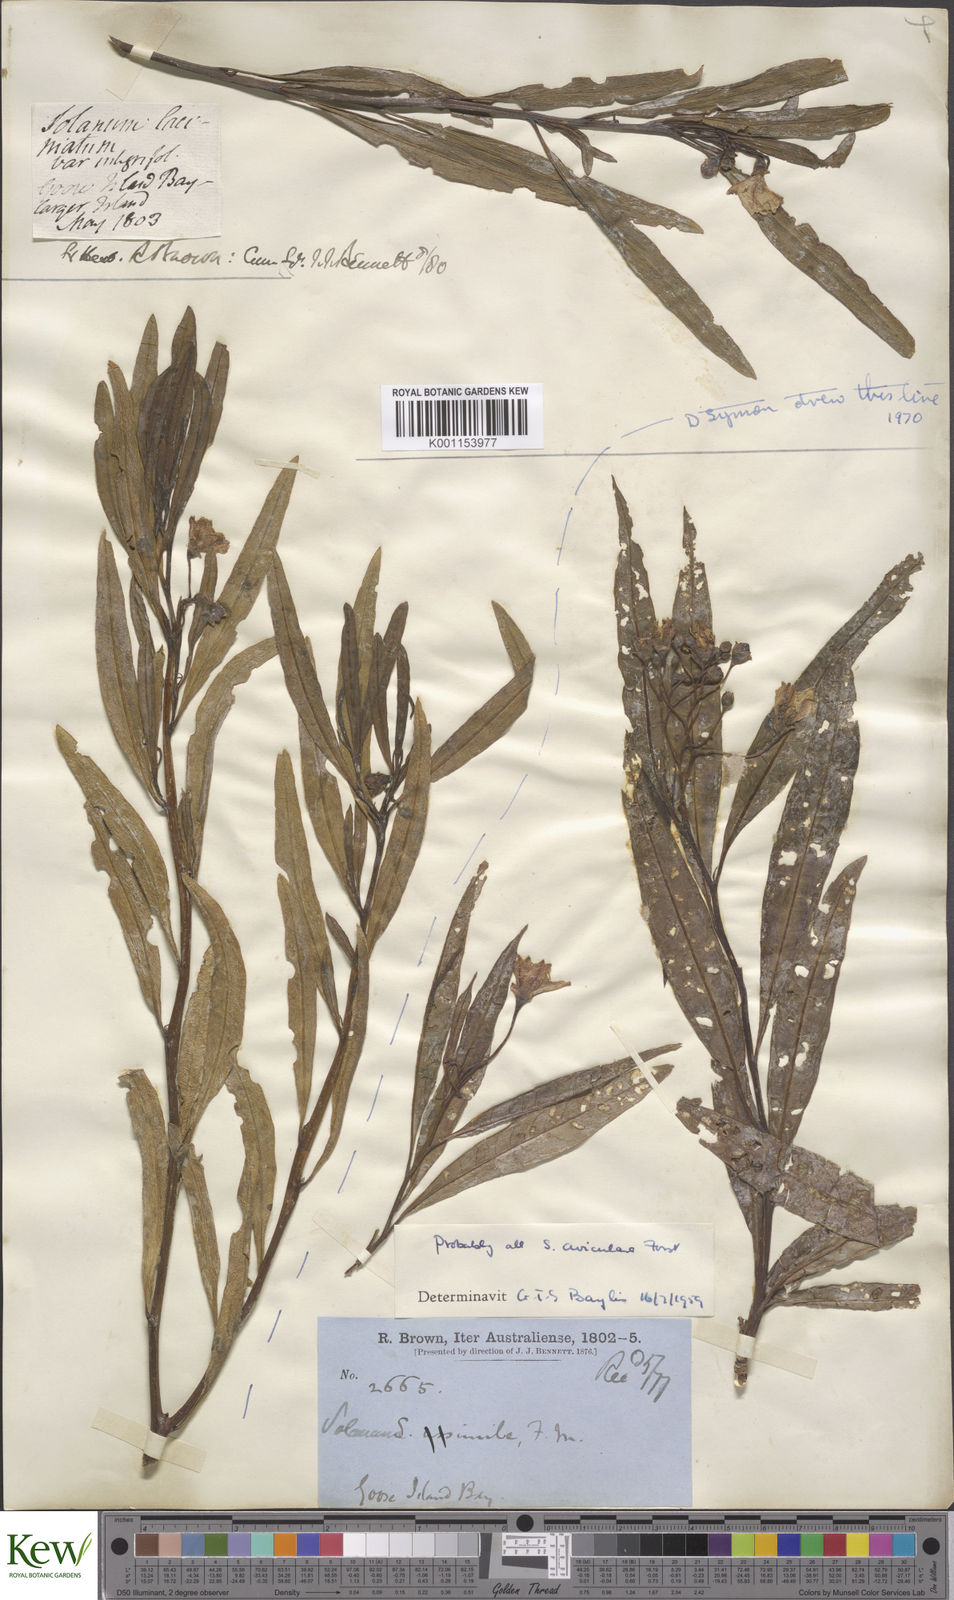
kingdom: Plantae
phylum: Tracheophyta
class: Magnoliopsida
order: Solanales
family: Solanaceae
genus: Solanum
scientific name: Solanum aviculare
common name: New zealand nightshade
